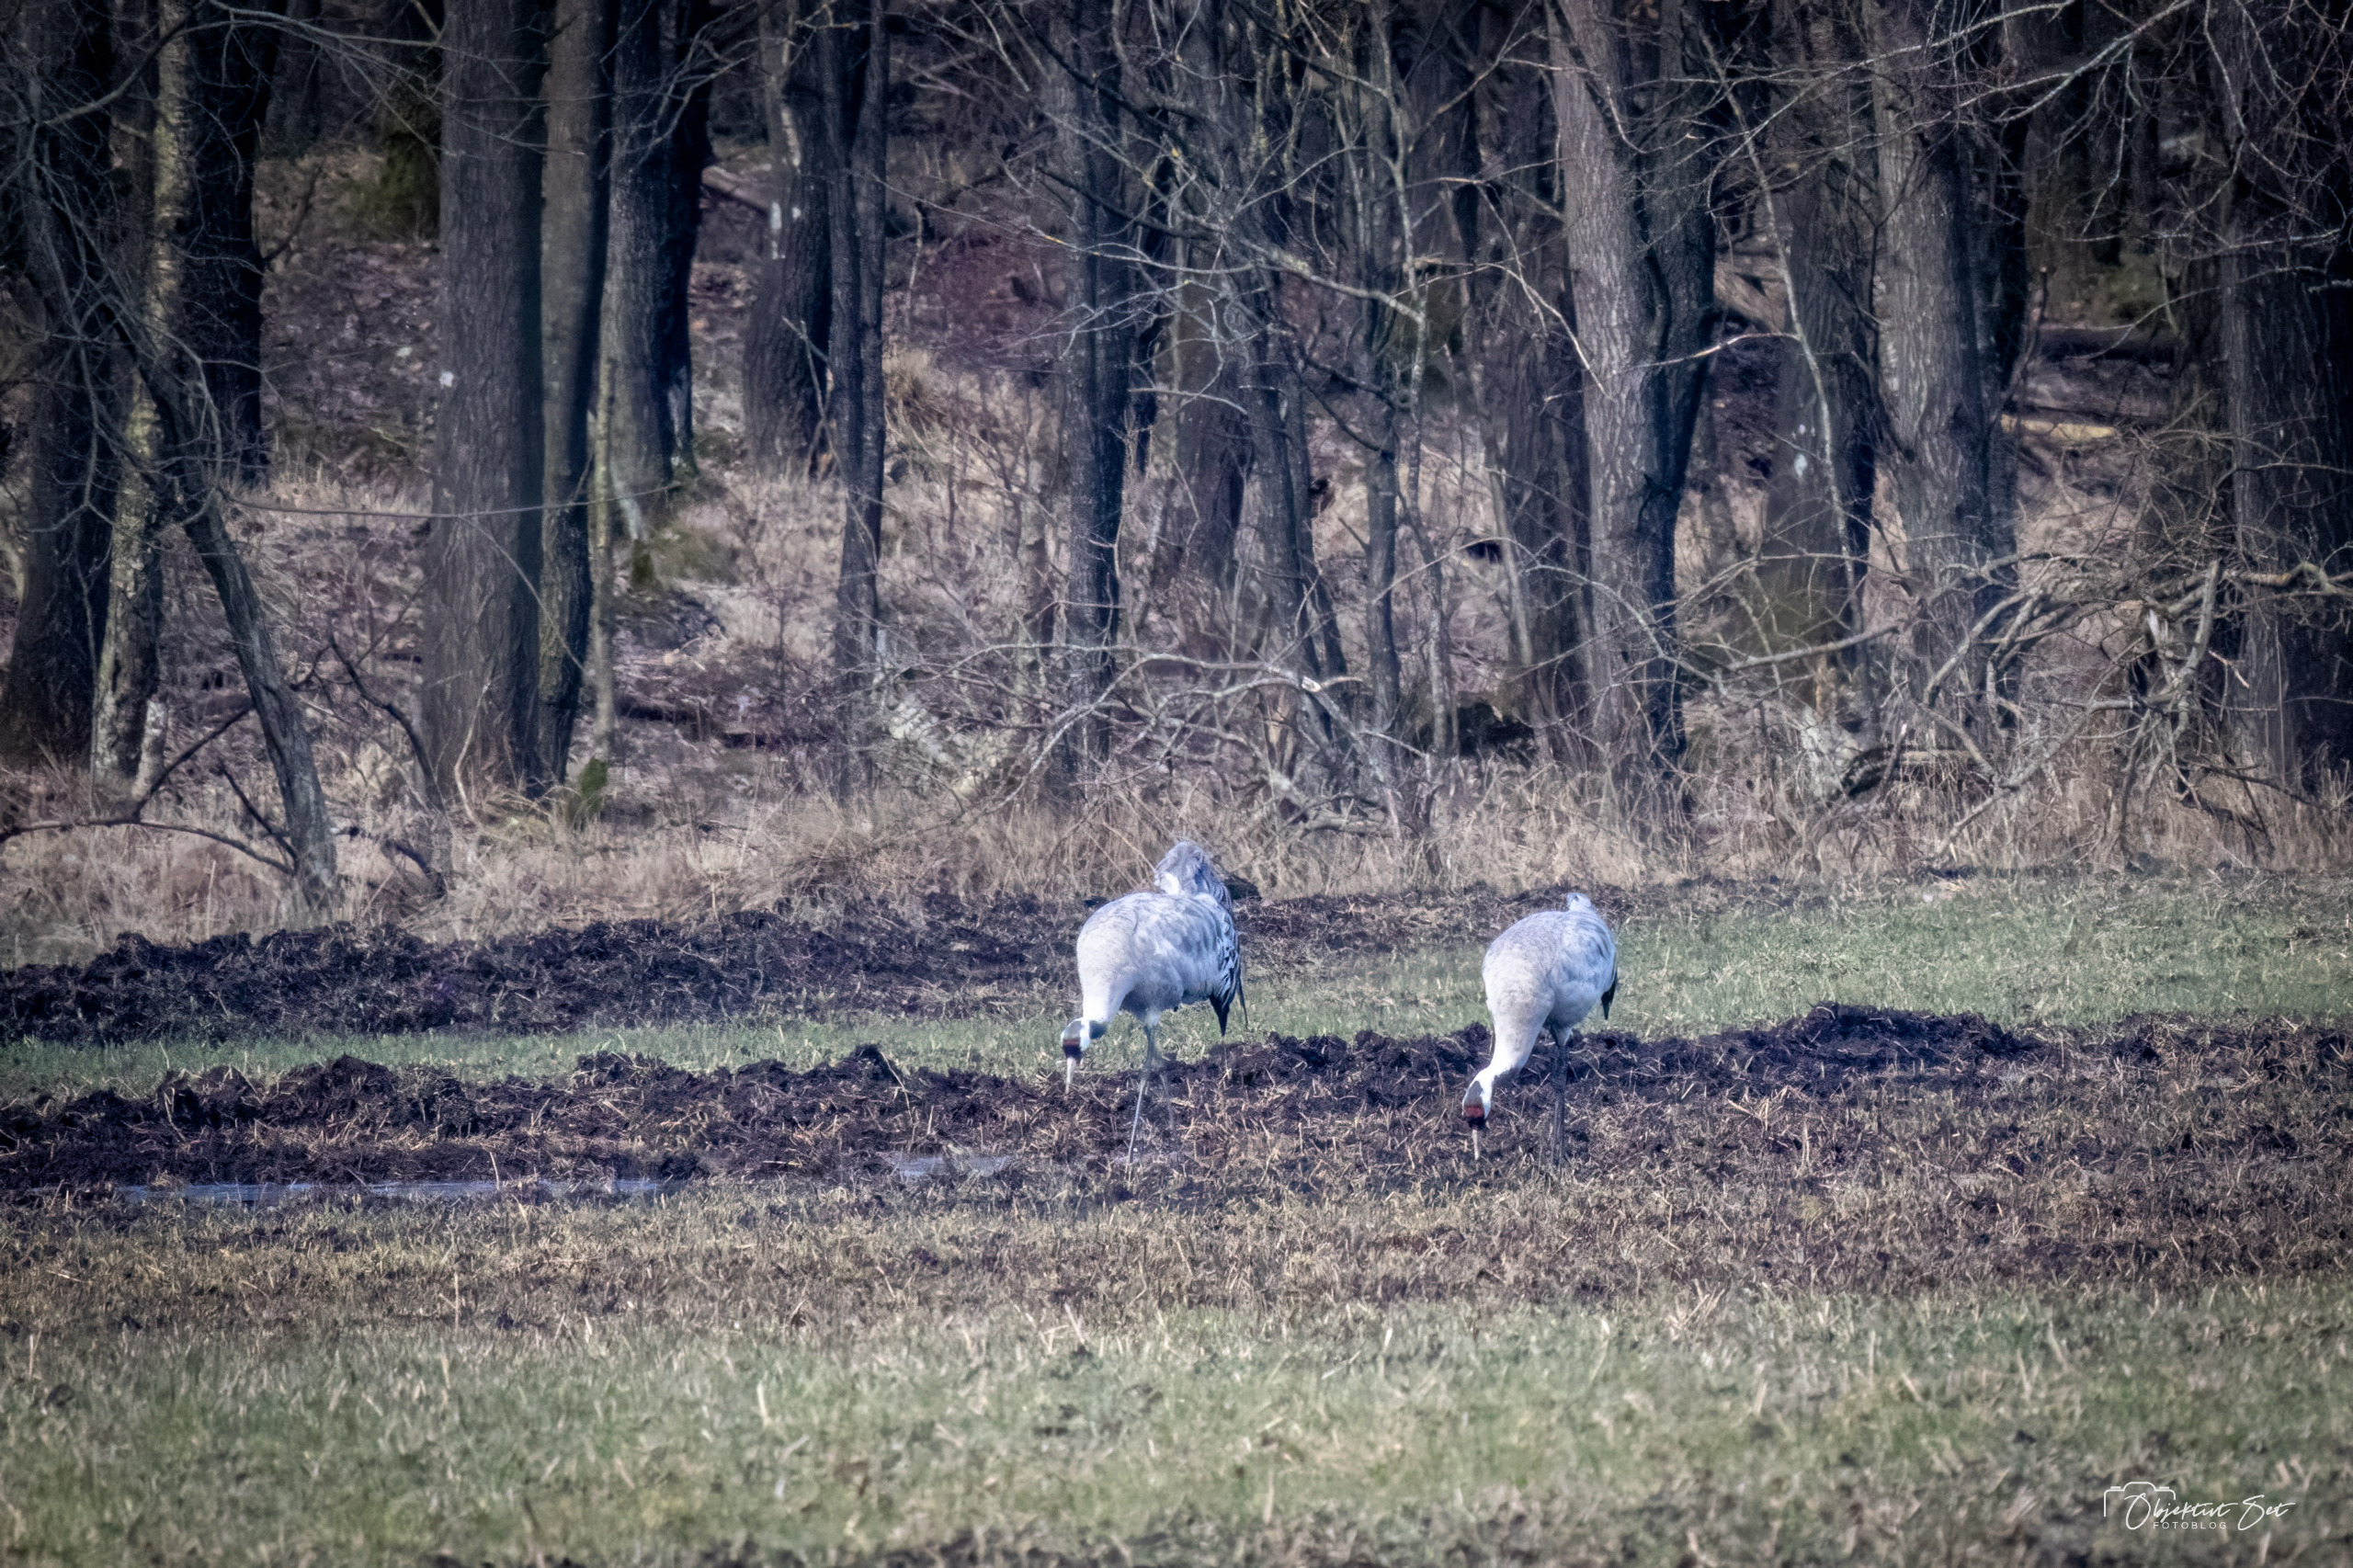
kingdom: Animalia
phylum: Chordata
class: Aves
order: Gruiformes
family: Gruidae
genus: Grus
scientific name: Grus grus
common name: Trane
